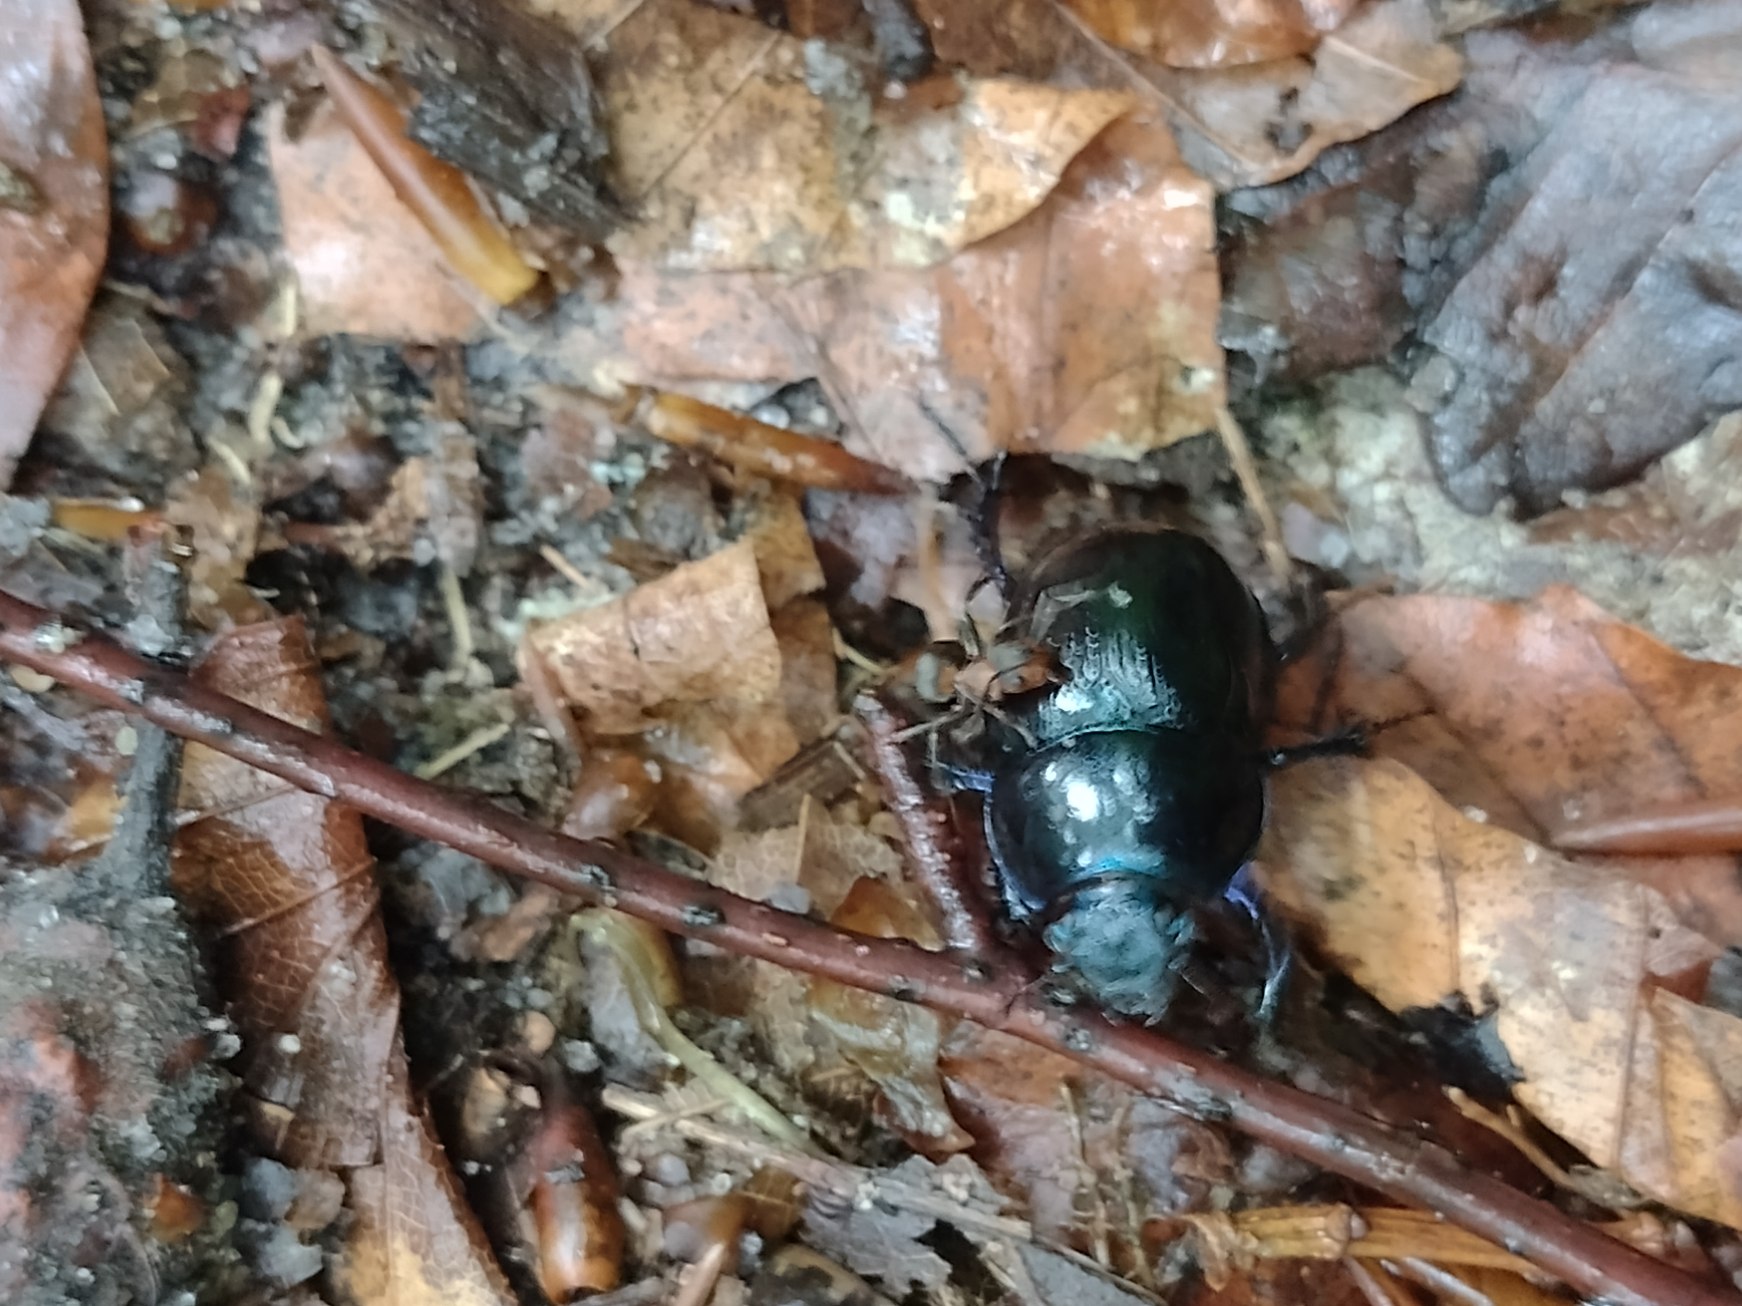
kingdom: Animalia
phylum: Arthropoda
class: Insecta
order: Coleoptera
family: Geotrupidae
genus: Anoplotrupes
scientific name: Anoplotrupes stercorosus
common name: Skovskarnbasse
